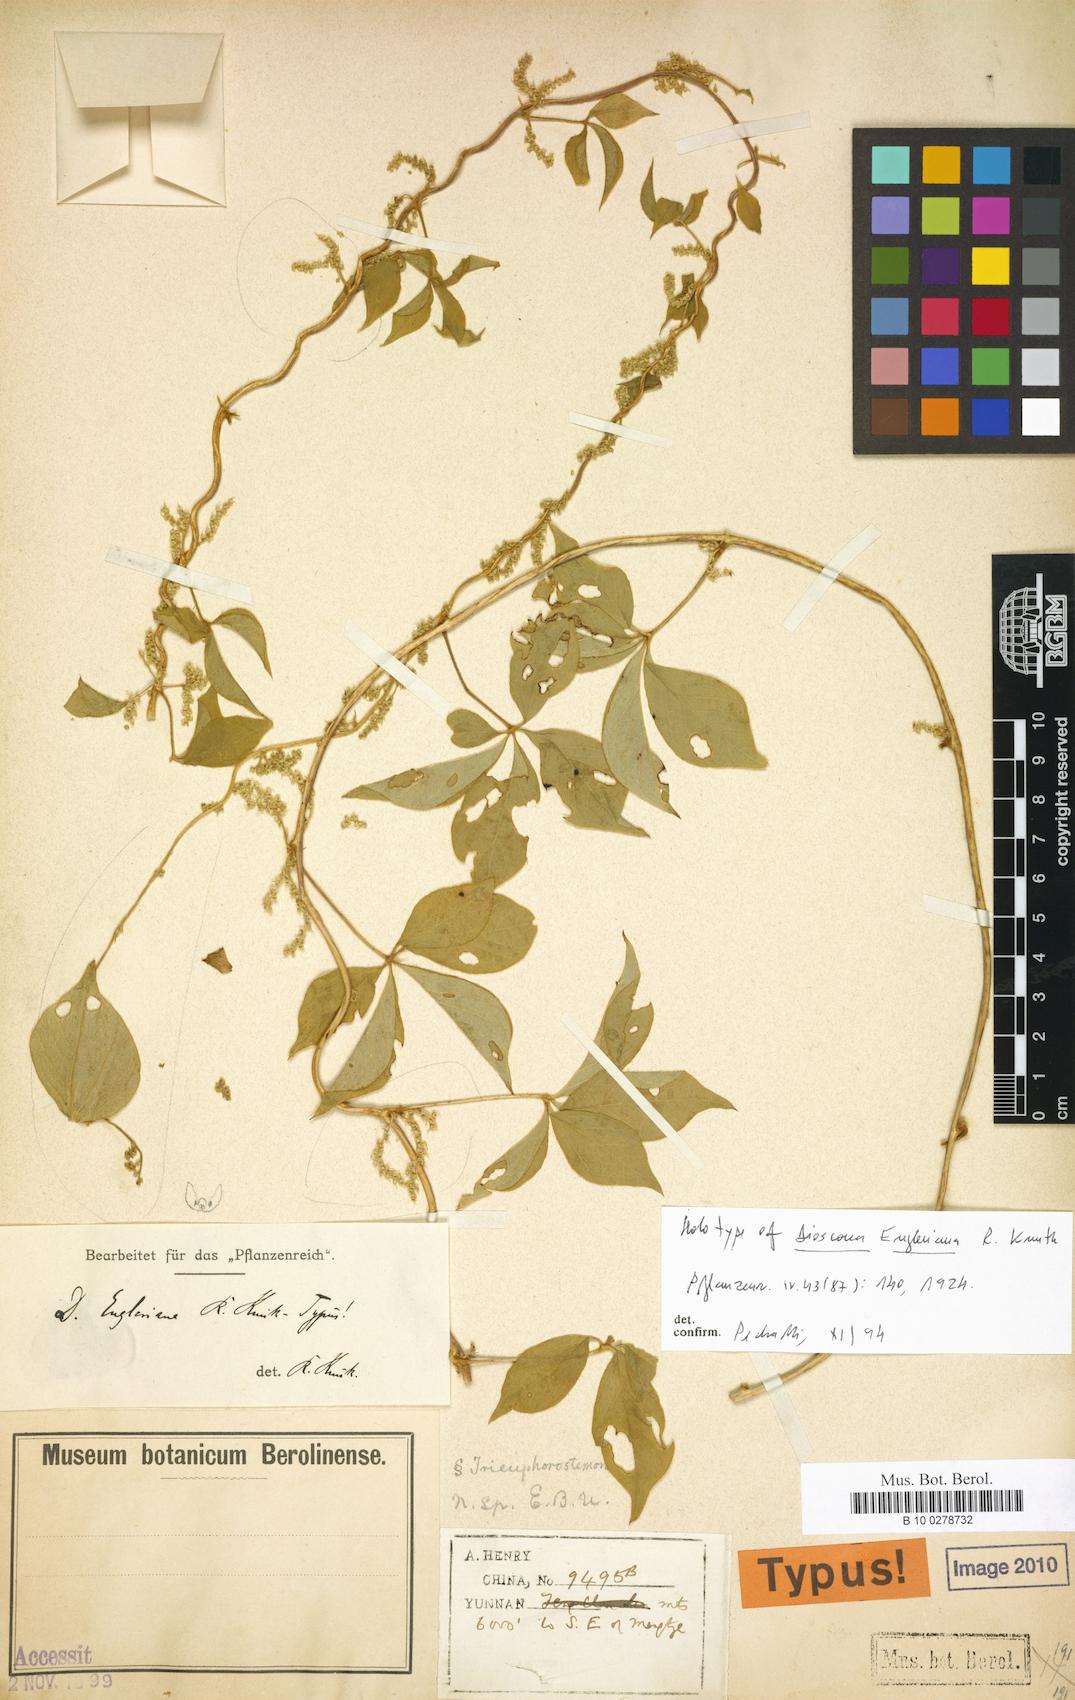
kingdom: Plantae
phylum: Tracheophyta
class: Liliopsida
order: Dioscoreales
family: Dioscoreaceae
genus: Dioscorea
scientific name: Dioscorea delavayi
